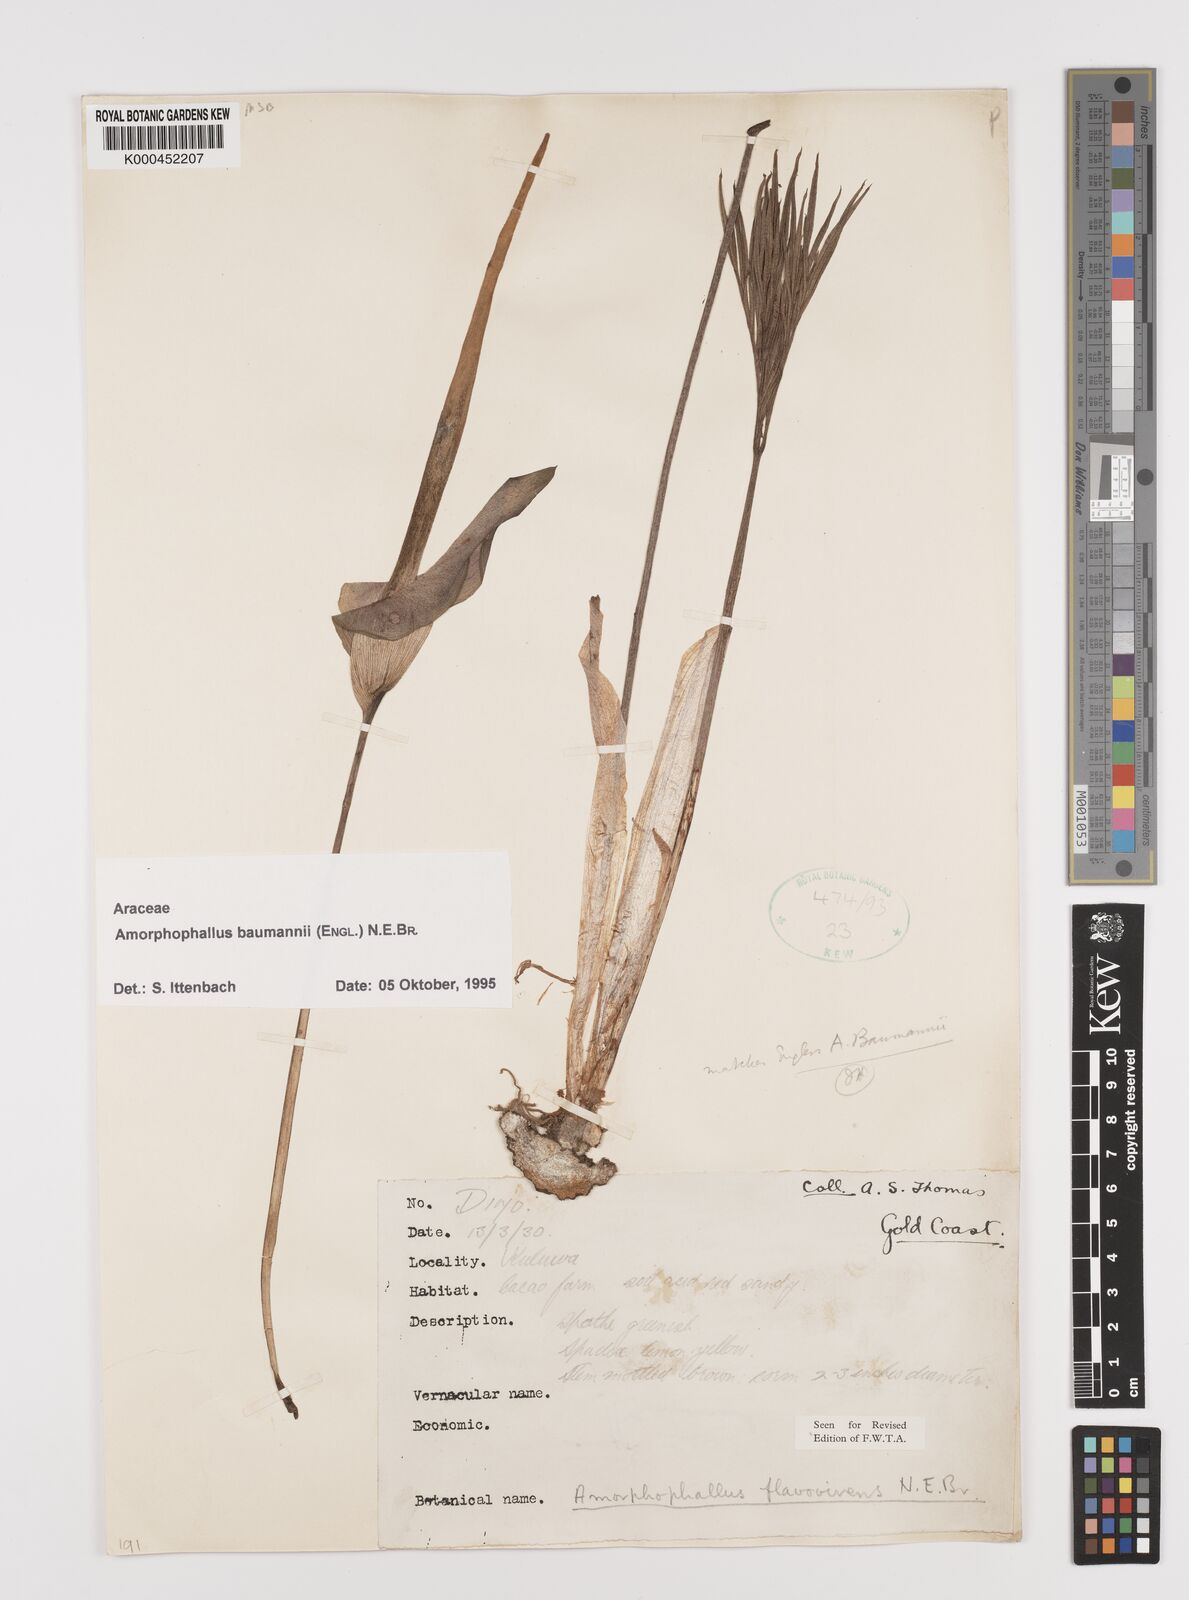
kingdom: Plantae
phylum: Tracheophyta
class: Liliopsida
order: Alismatales
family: Araceae
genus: Amorphophallus
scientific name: Amorphophallus baumannii
